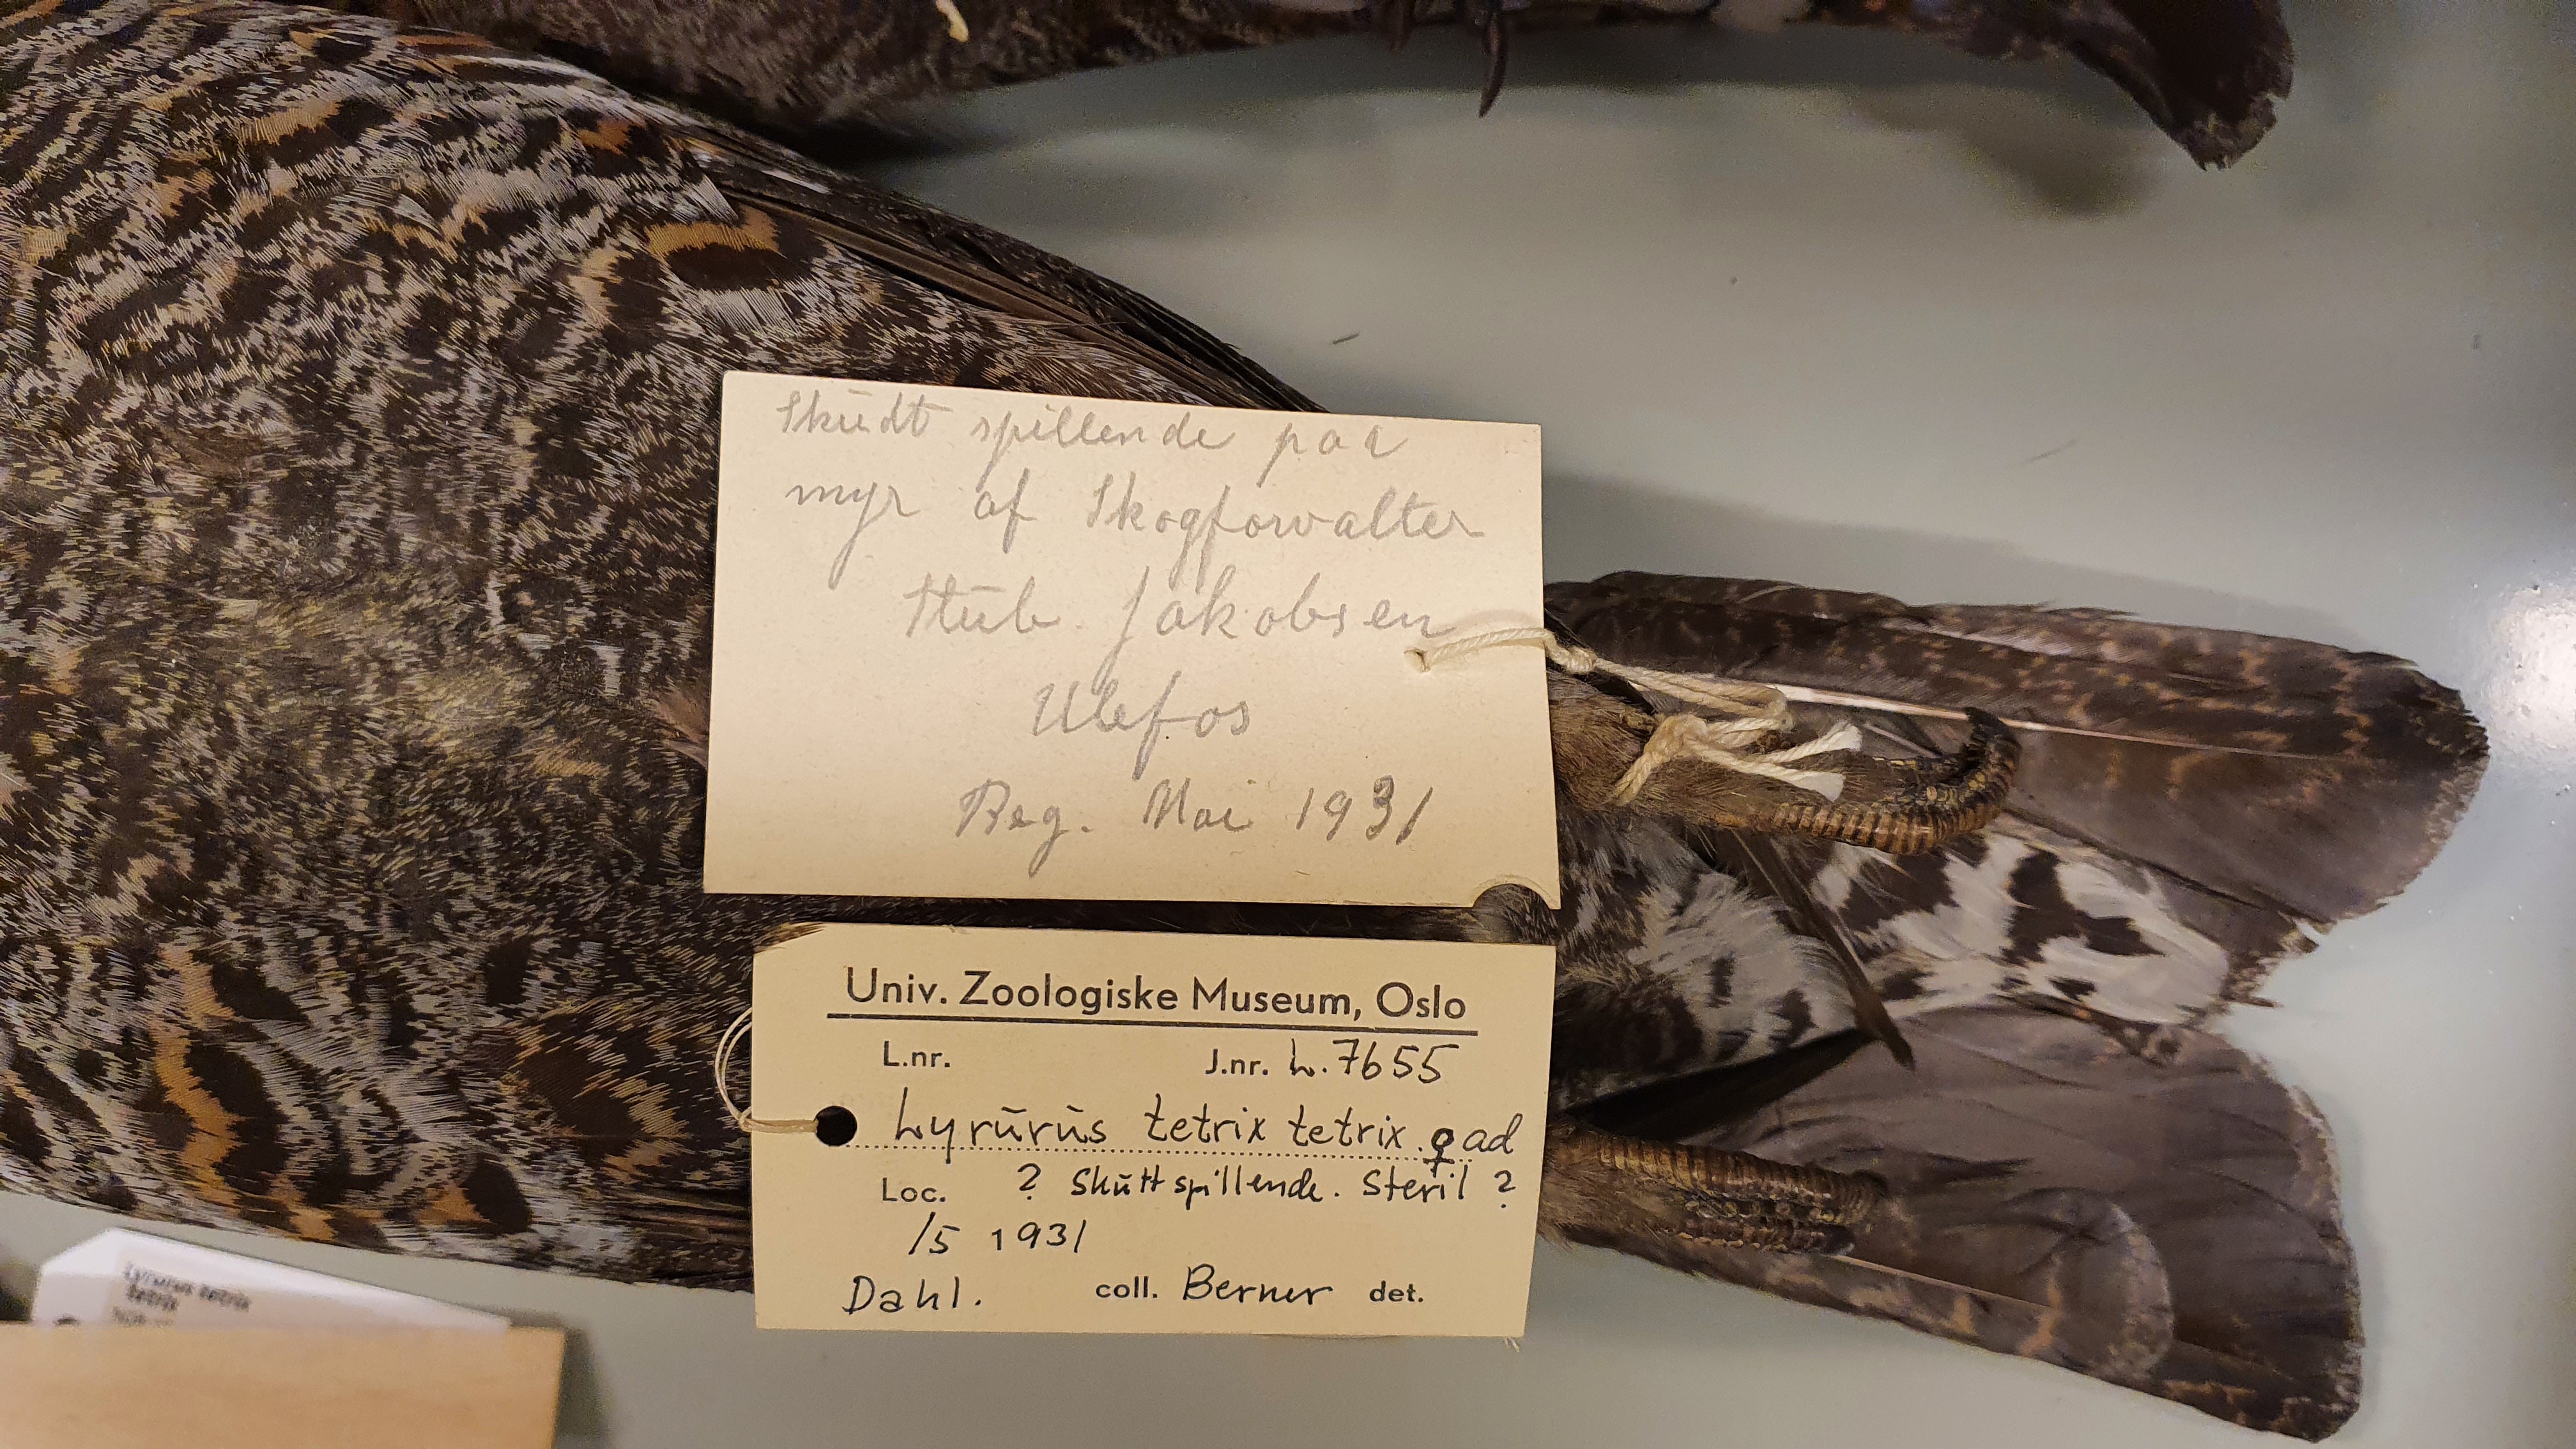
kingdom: Animalia
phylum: Chordata
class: Aves
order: Galliformes
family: Phasianidae
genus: Lyrurus
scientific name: Lyrurus tetrix
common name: Black grouse
